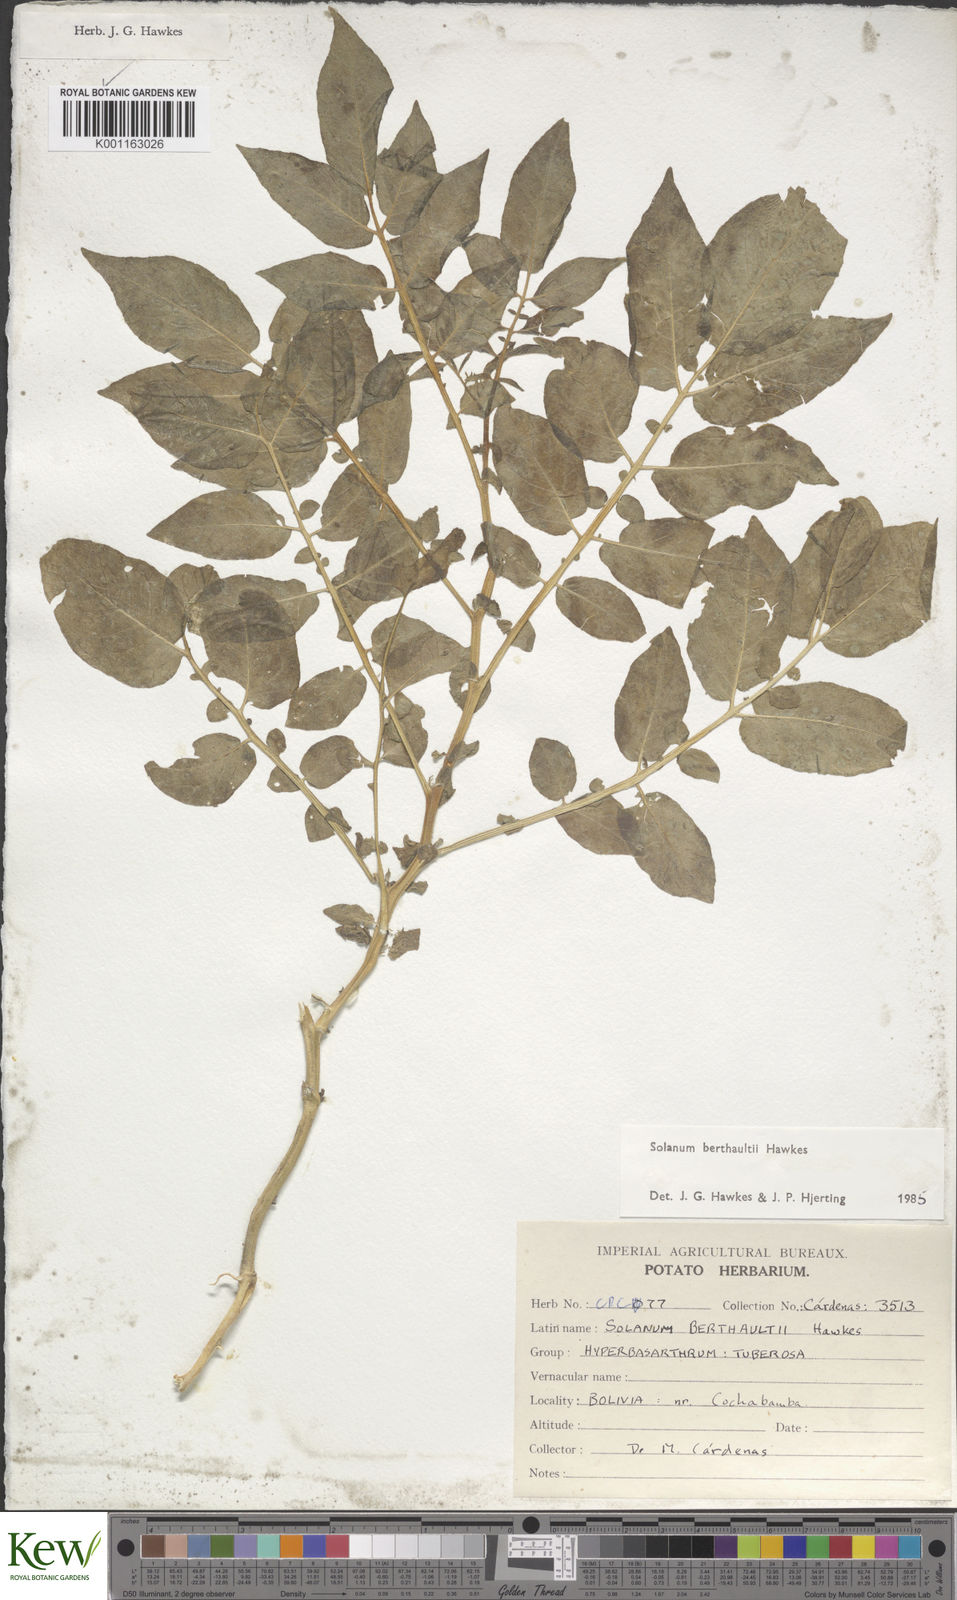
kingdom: Plantae
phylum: Tracheophyta
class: Magnoliopsida
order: Solanales
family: Solanaceae
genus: Solanum
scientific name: Solanum berthaultii
